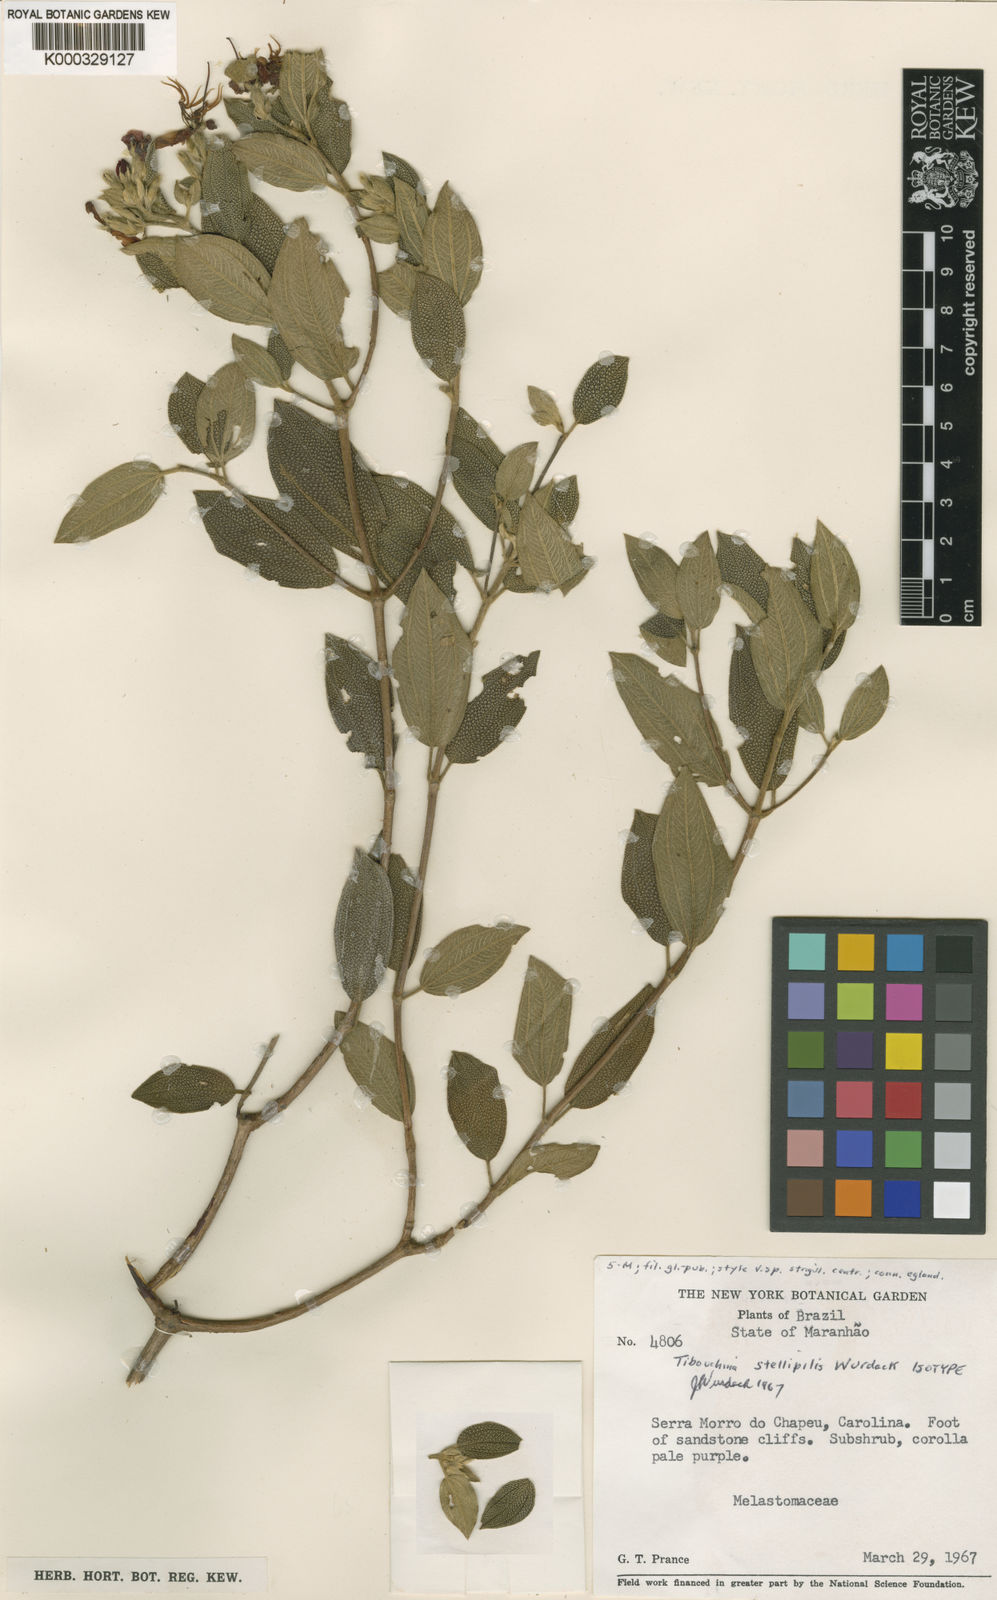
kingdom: Plantae
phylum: Tracheophyta
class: Magnoliopsida
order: Myrtales
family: Melastomataceae
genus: Pleroma
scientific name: Pleroma stellipile
